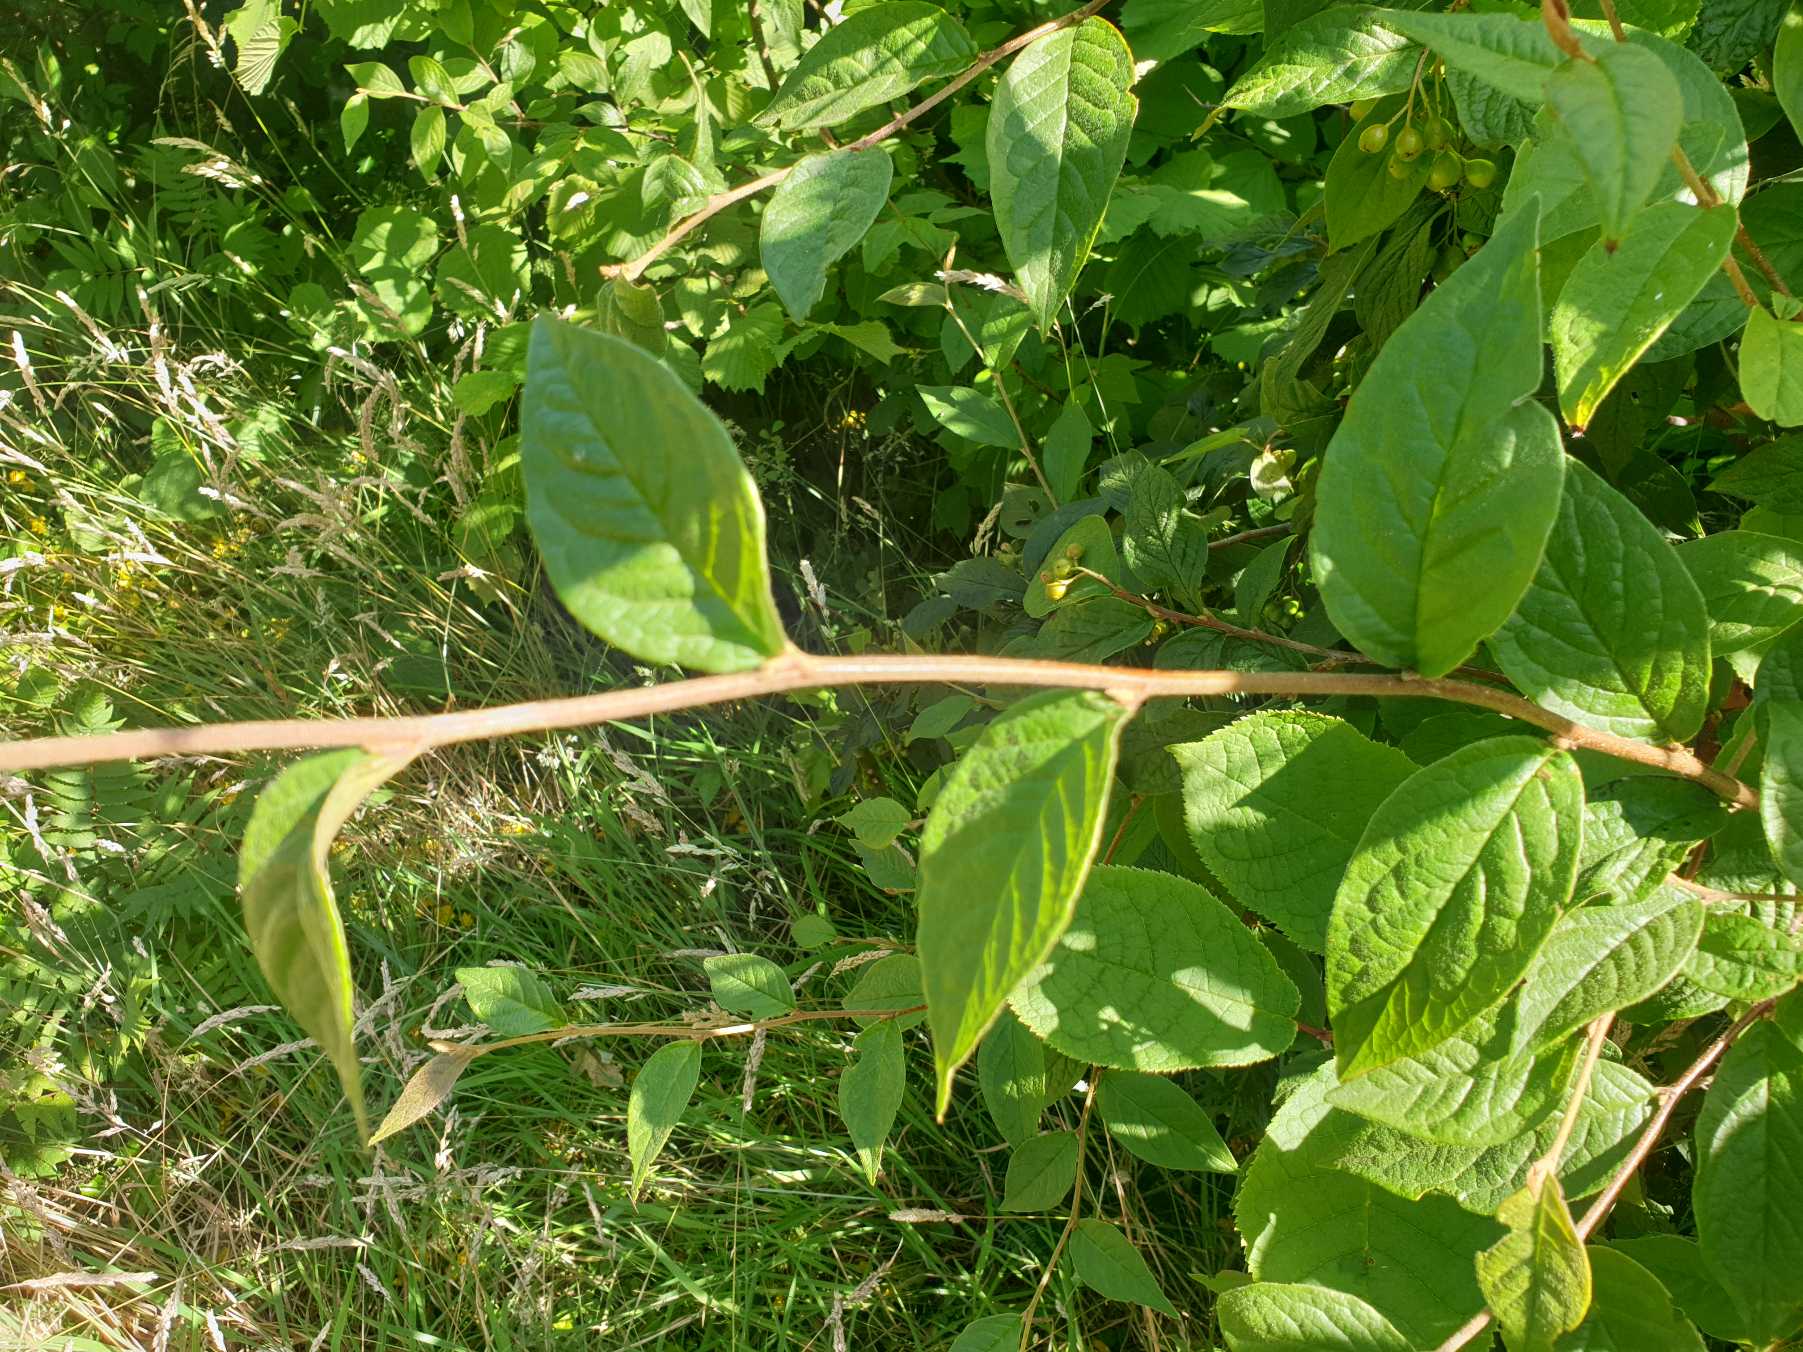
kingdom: Plantae
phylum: Tracheophyta
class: Magnoliopsida
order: Rosales
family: Rosaceae
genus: Cotoneaster
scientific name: Cotoneaster bullatus
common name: Storbladet dværgmispel
